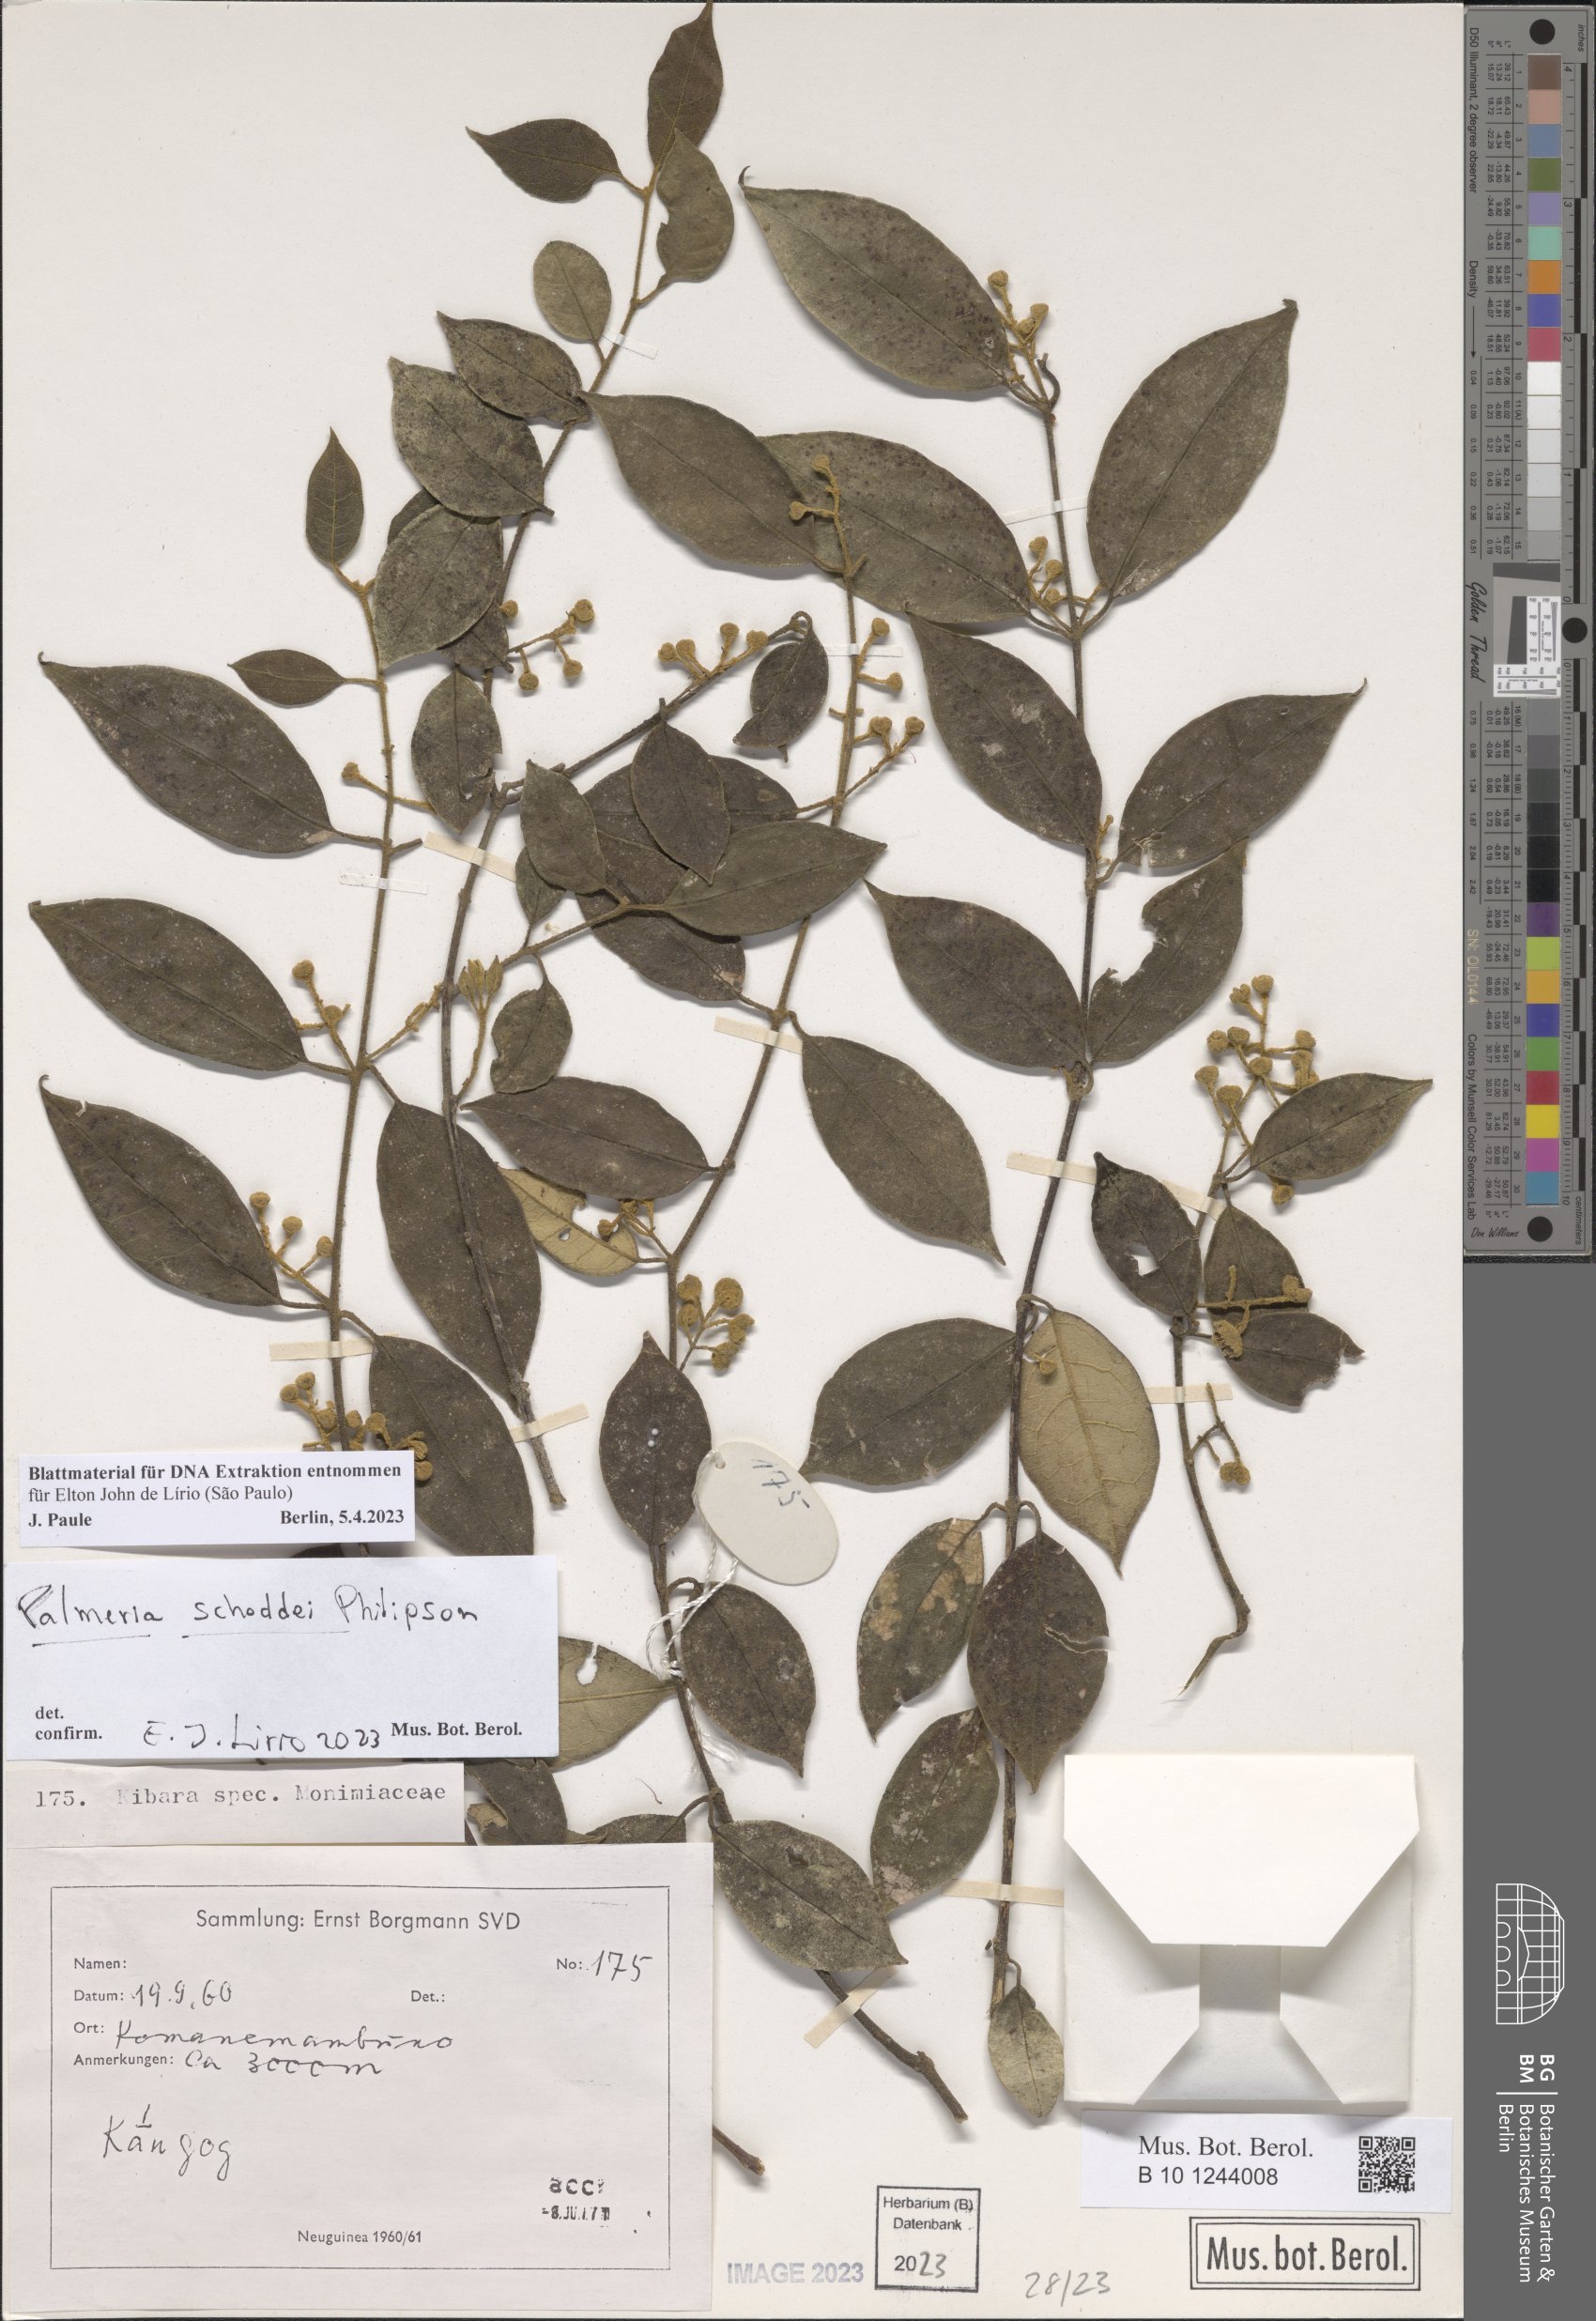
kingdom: Plantae
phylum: Tracheophyta
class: Magnoliopsida
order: Laurales
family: Monimiaceae
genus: Palmeria
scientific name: Palmeria schoddei
